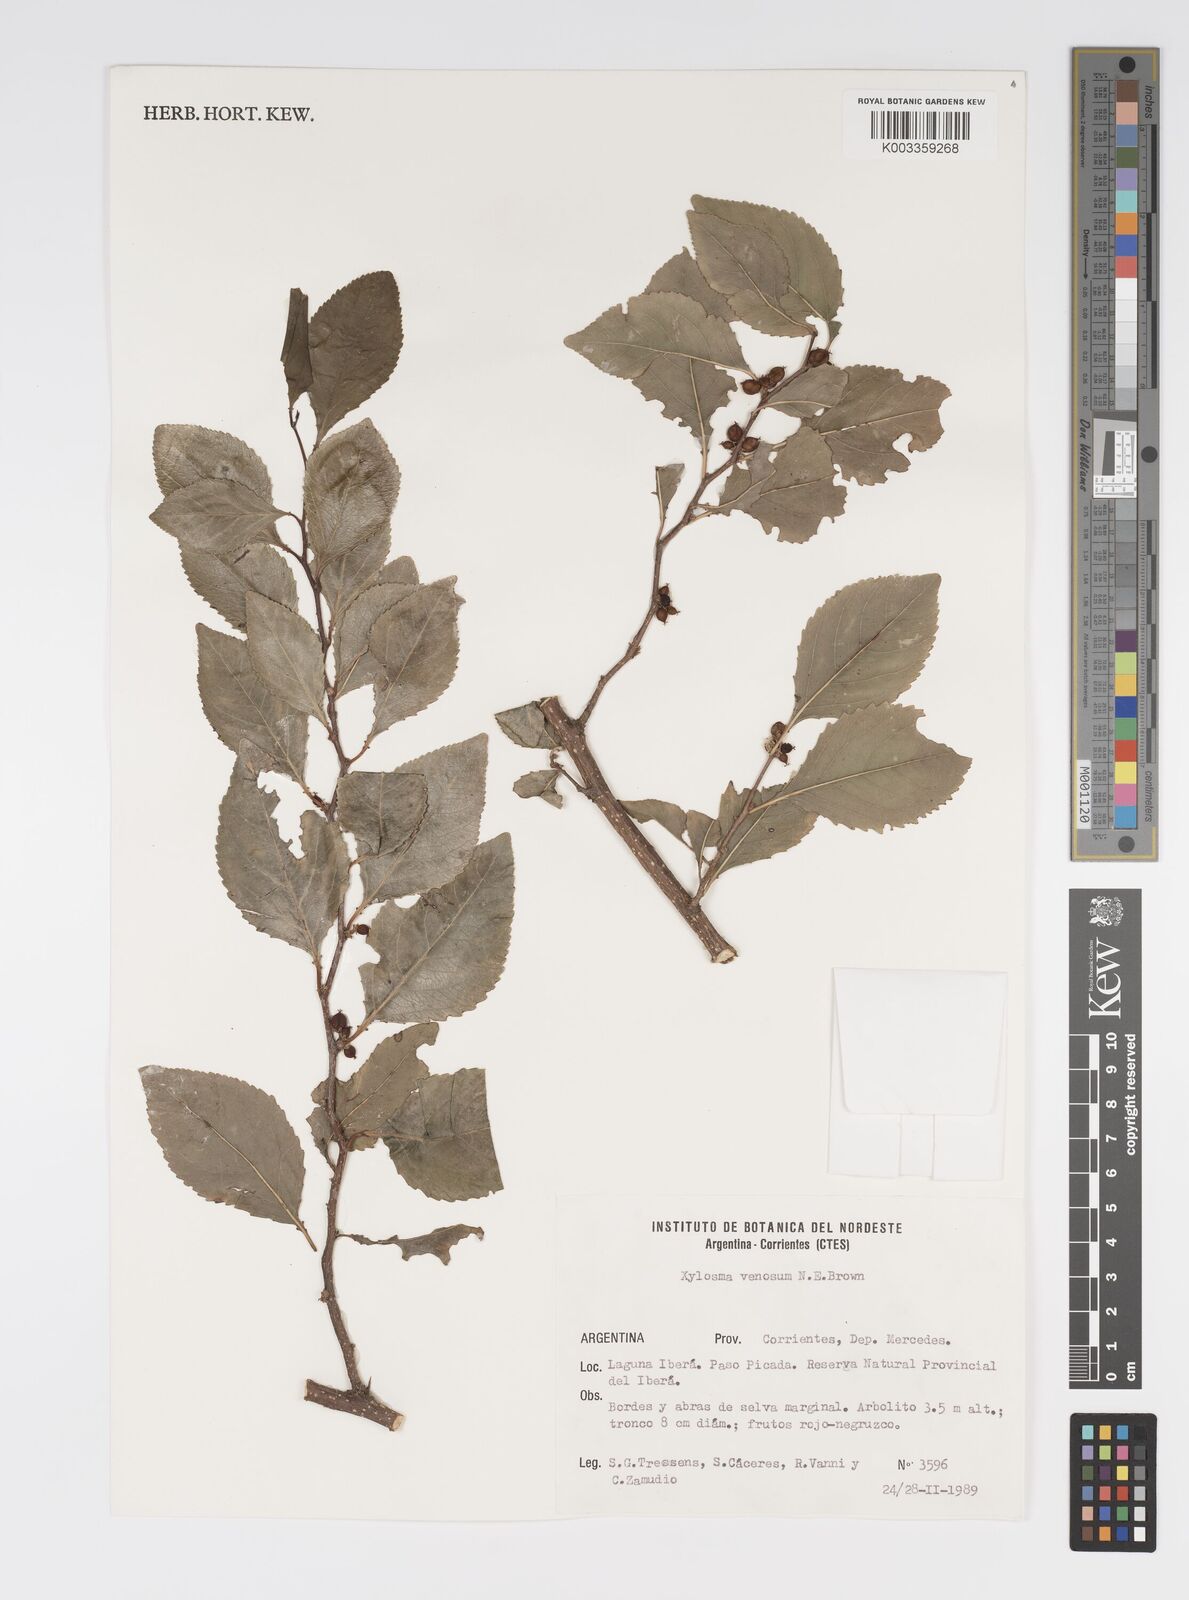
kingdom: Plantae
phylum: Tracheophyta
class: Magnoliopsida
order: Malpighiales
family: Salicaceae
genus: Xylosma
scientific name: Xylosma venosa
